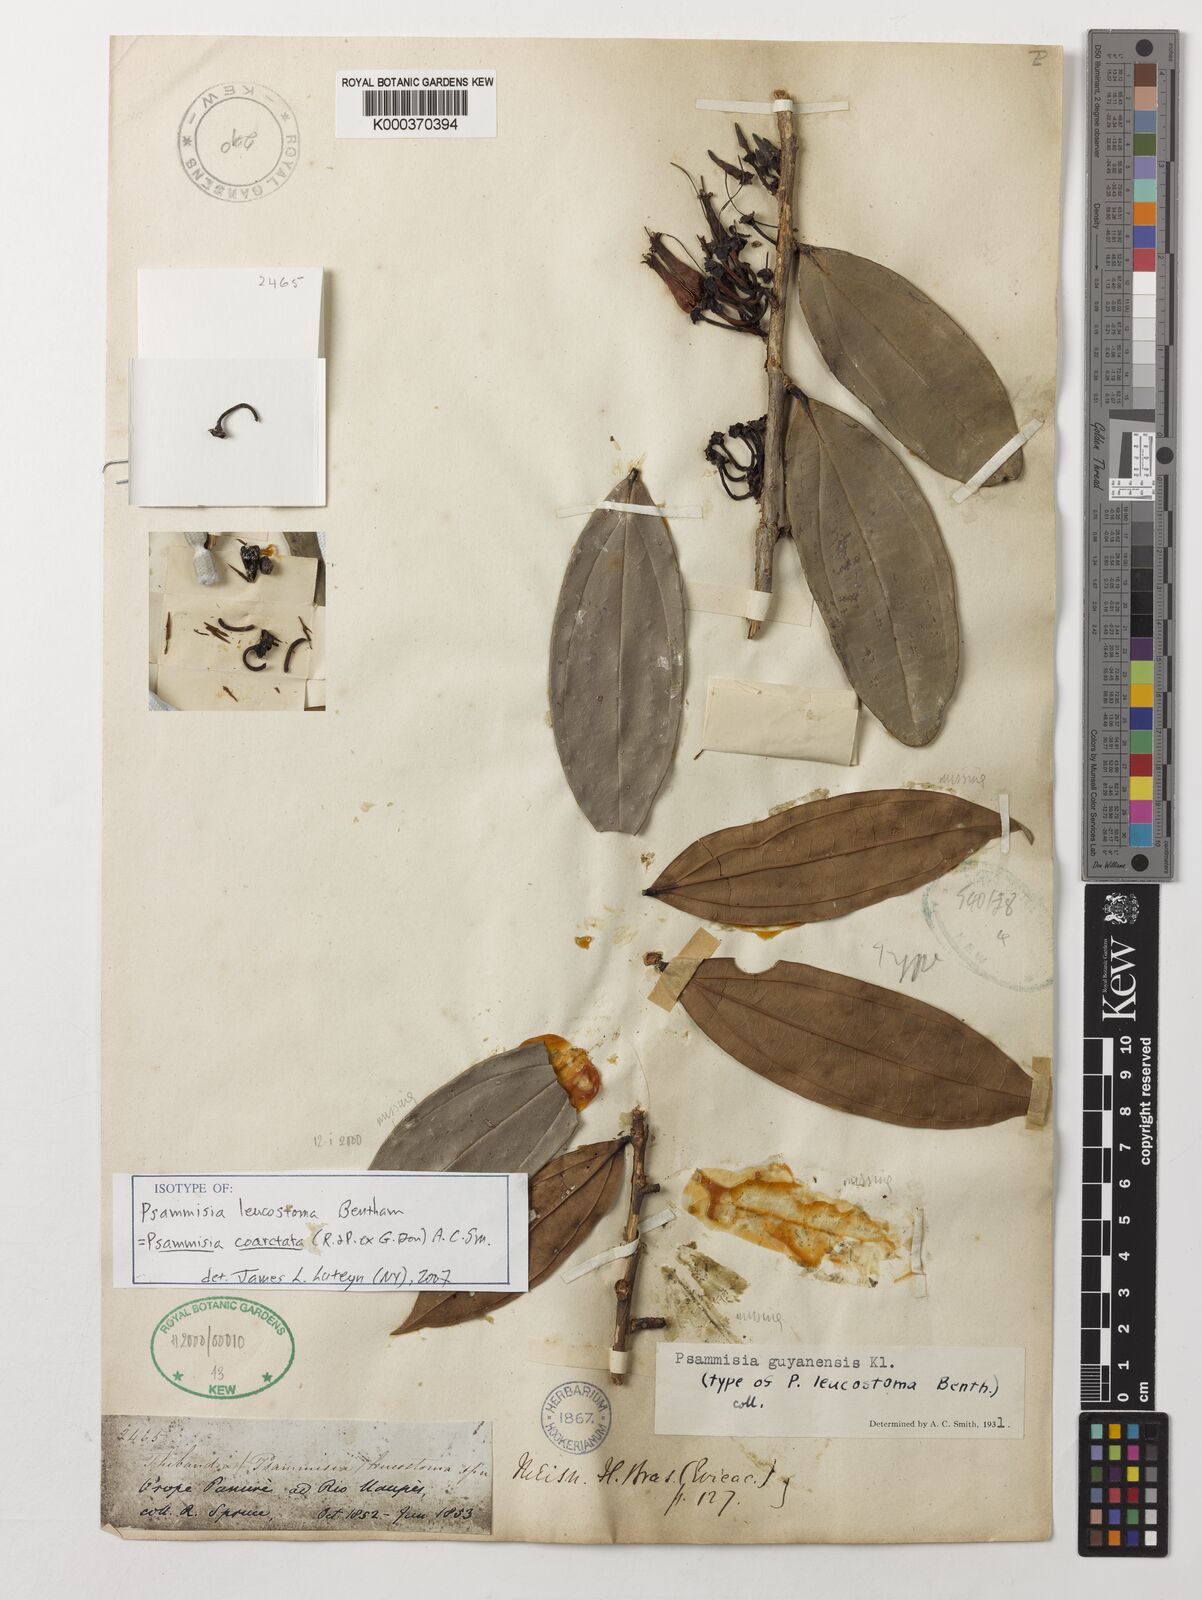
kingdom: Plantae
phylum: Tracheophyta
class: Magnoliopsida
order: Ericales
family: Ericaceae
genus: Psammisia
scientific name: Psammisia coarctata
